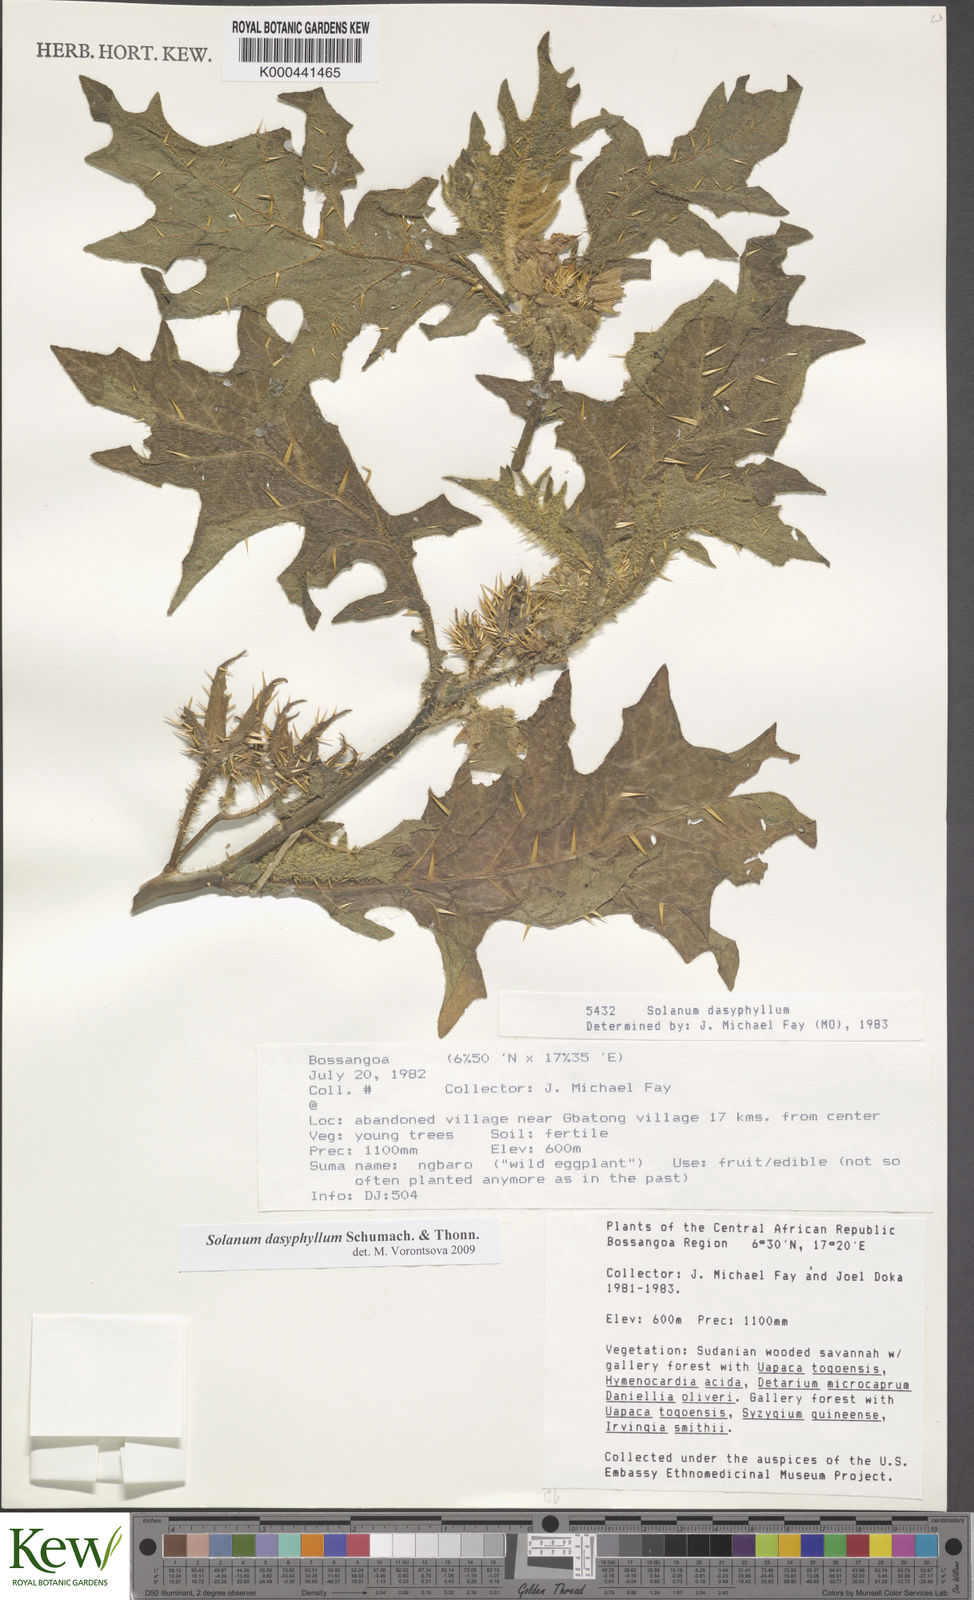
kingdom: Plantae
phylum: Tracheophyta
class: Magnoliopsida
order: Solanales
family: Solanaceae
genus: Solanum
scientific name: Solanum dasyphyllum
